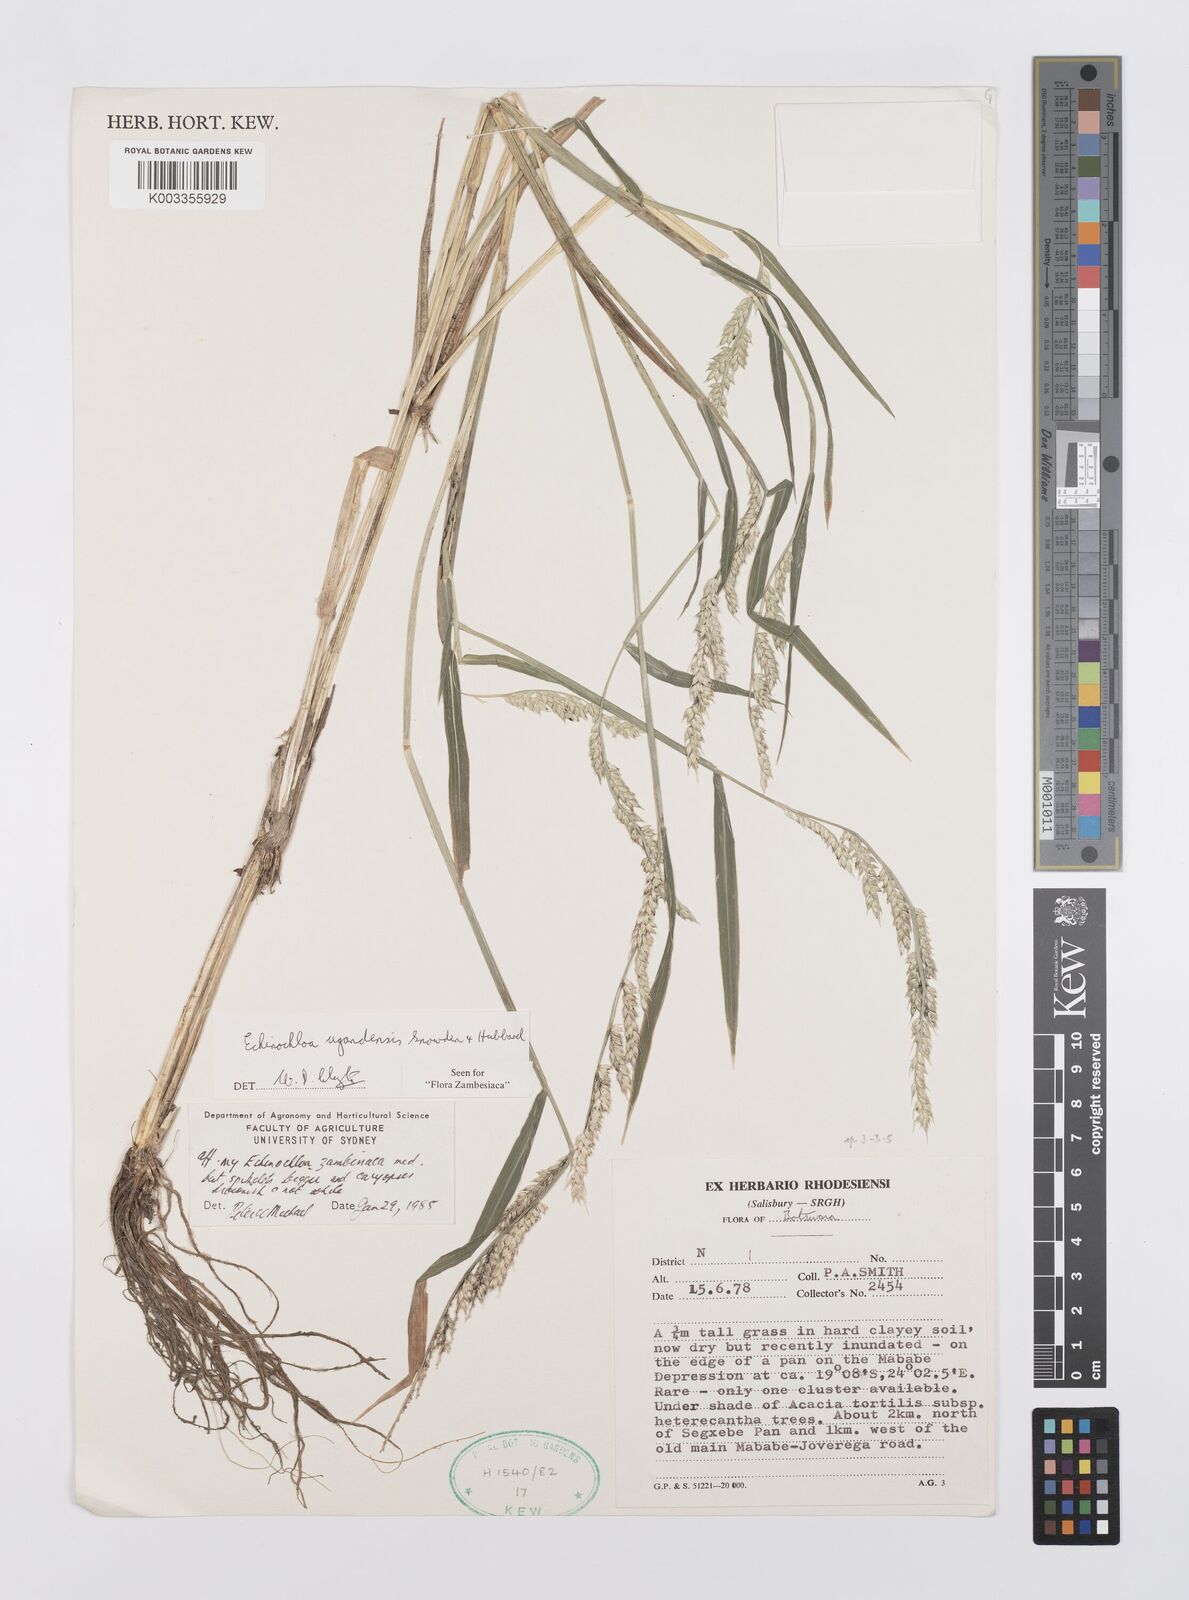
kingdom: Plantae
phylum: Tracheophyta
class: Liliopsida
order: Poales
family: Poaceae
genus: Echinochloa
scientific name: Echinochloa ugandensis
